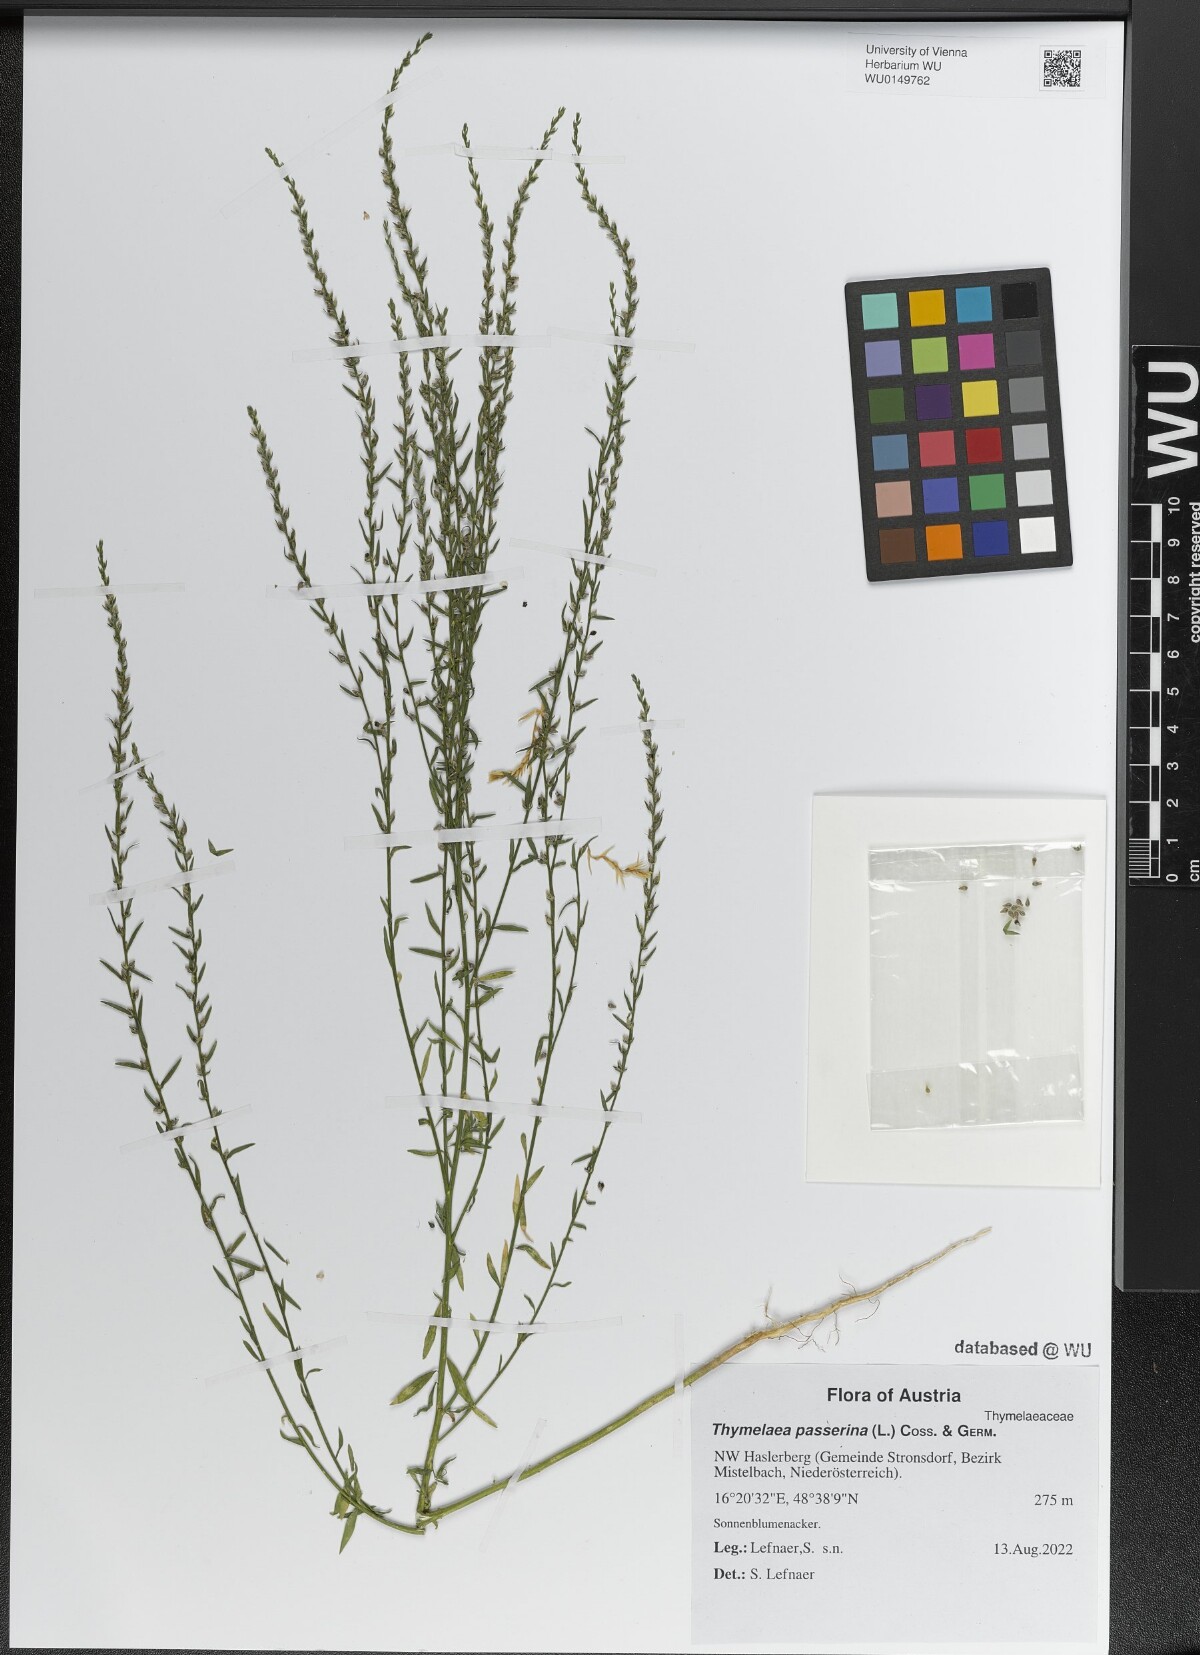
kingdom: Plantae
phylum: Tracheophyta
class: Magnoliopsida
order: Malvales
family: Thymelaeaceae
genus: Thymelaea
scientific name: Thymelaea passerina
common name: Annual thymelaea
